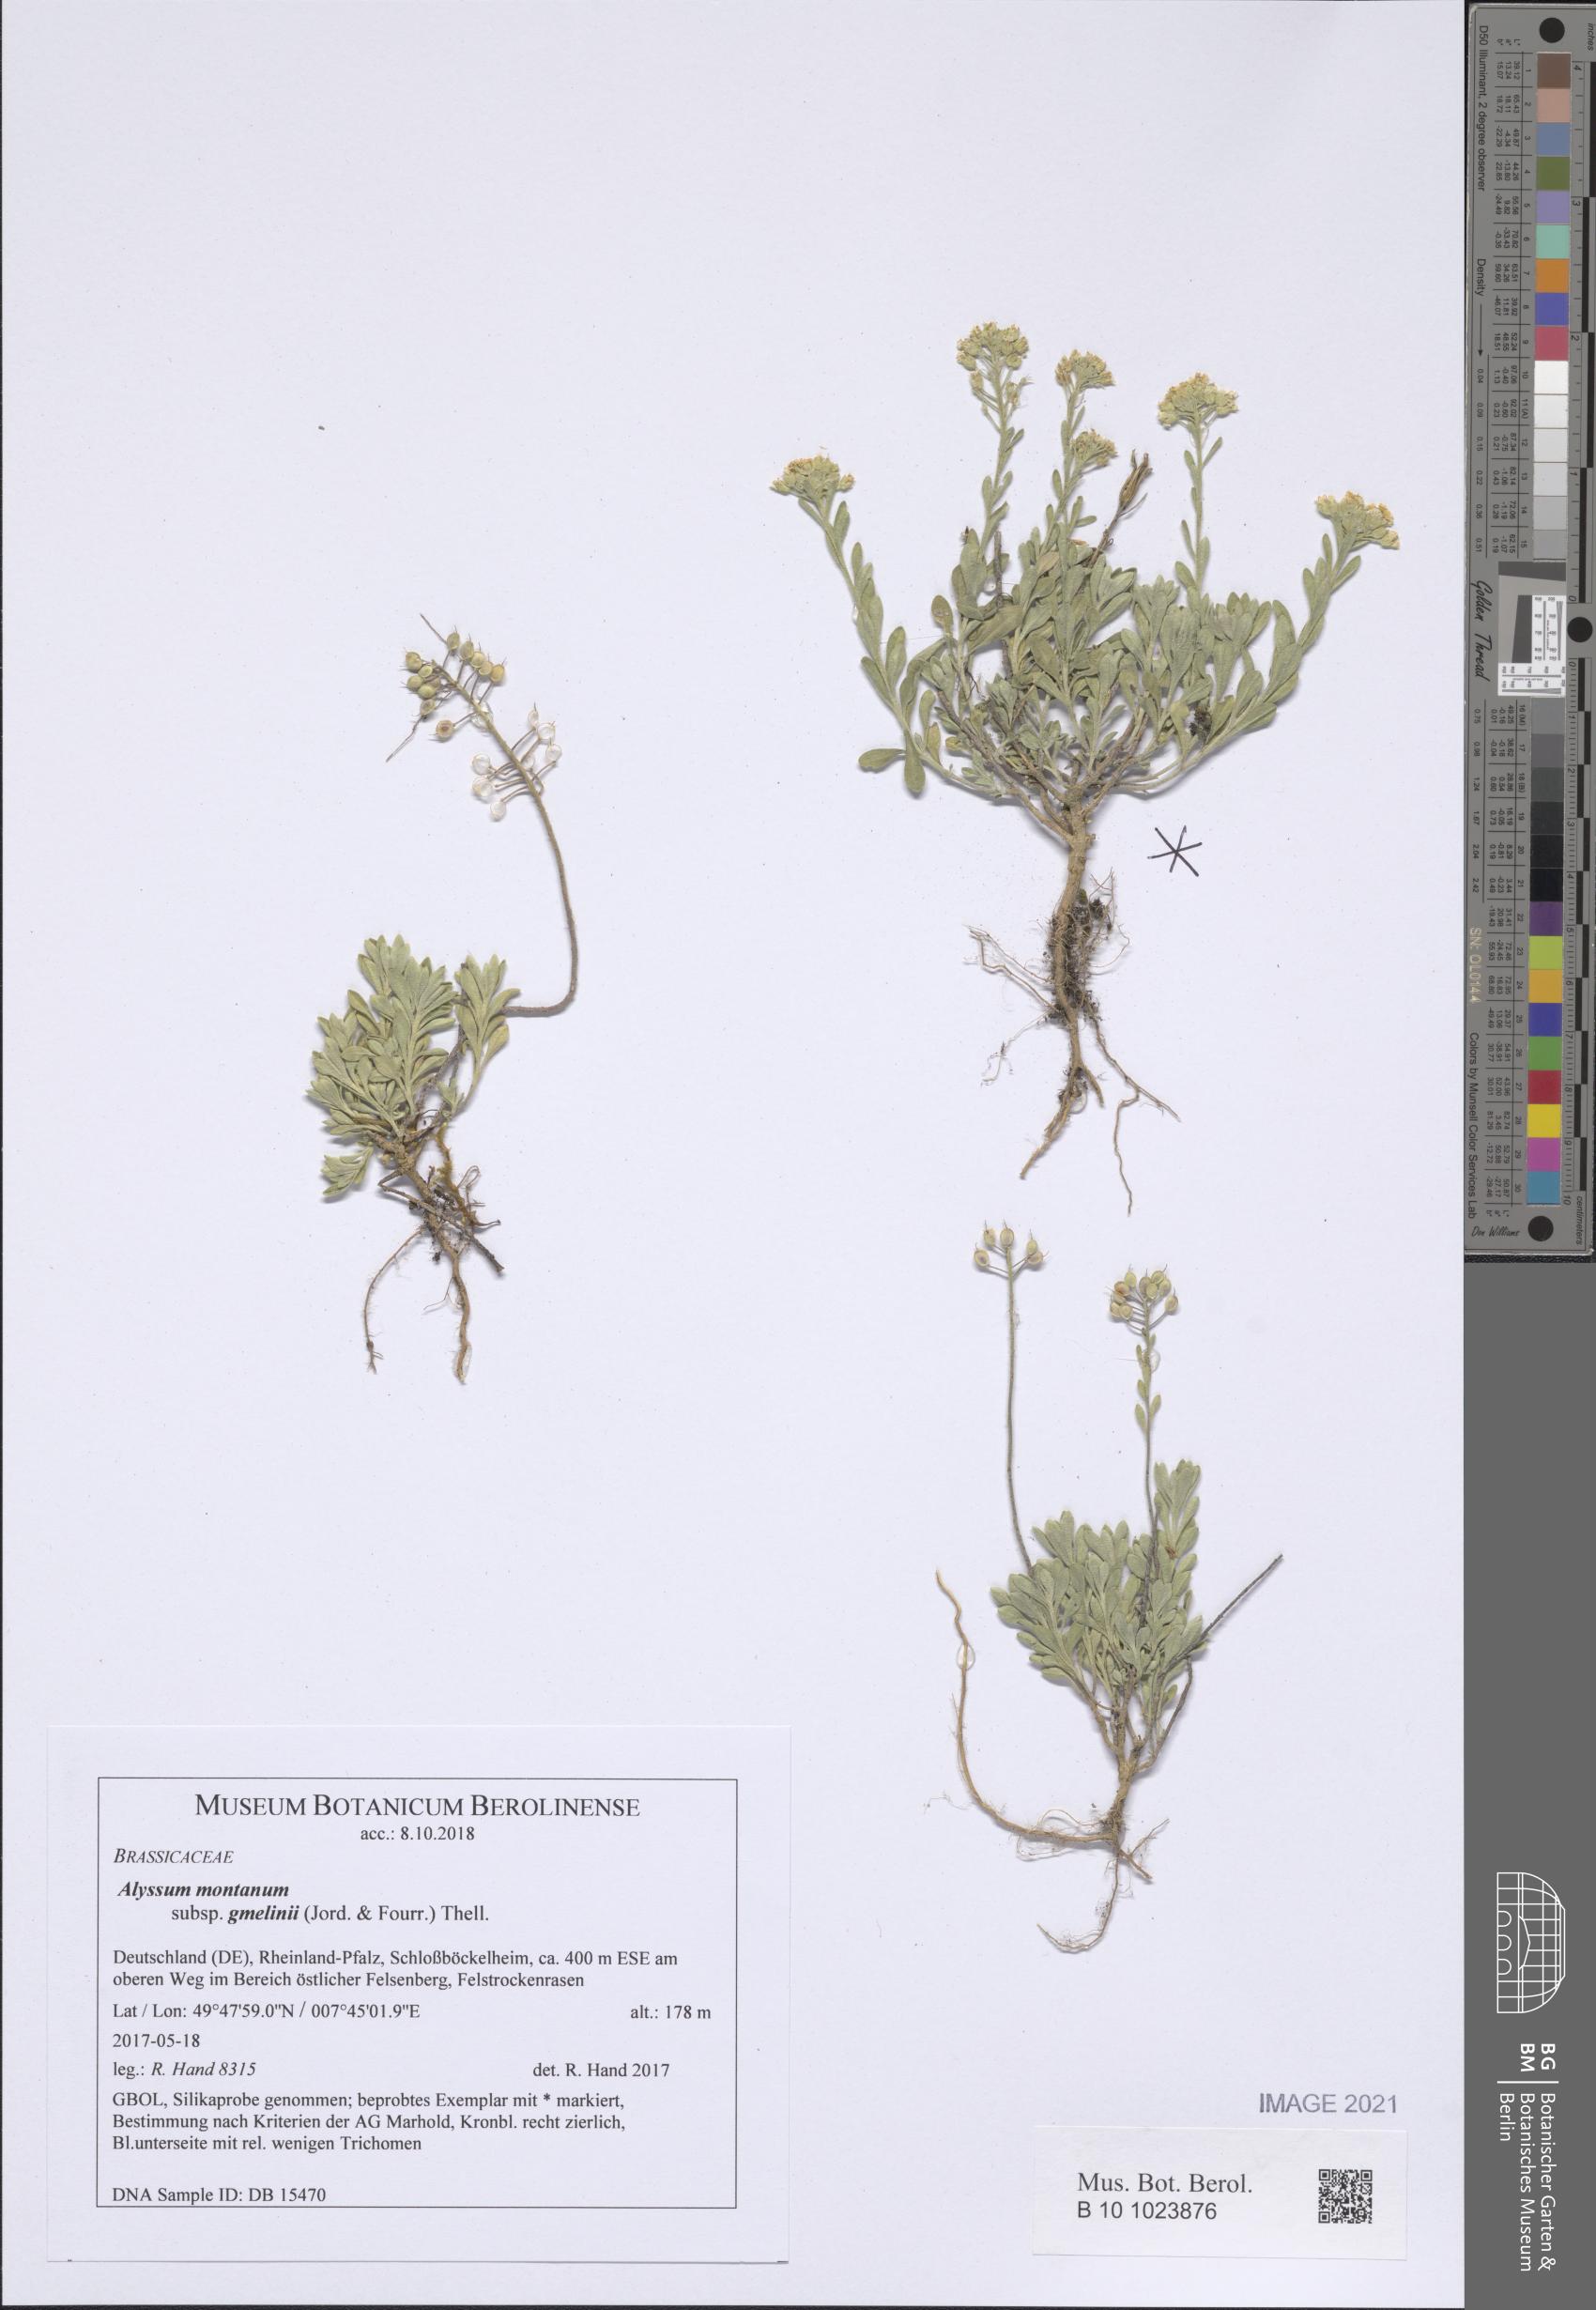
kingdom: Plantae
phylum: Tracheophyta
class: Magnoliopsida
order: Brassicales
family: Brassicaceae
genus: Alyssum
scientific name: Alyssum gmelinii
